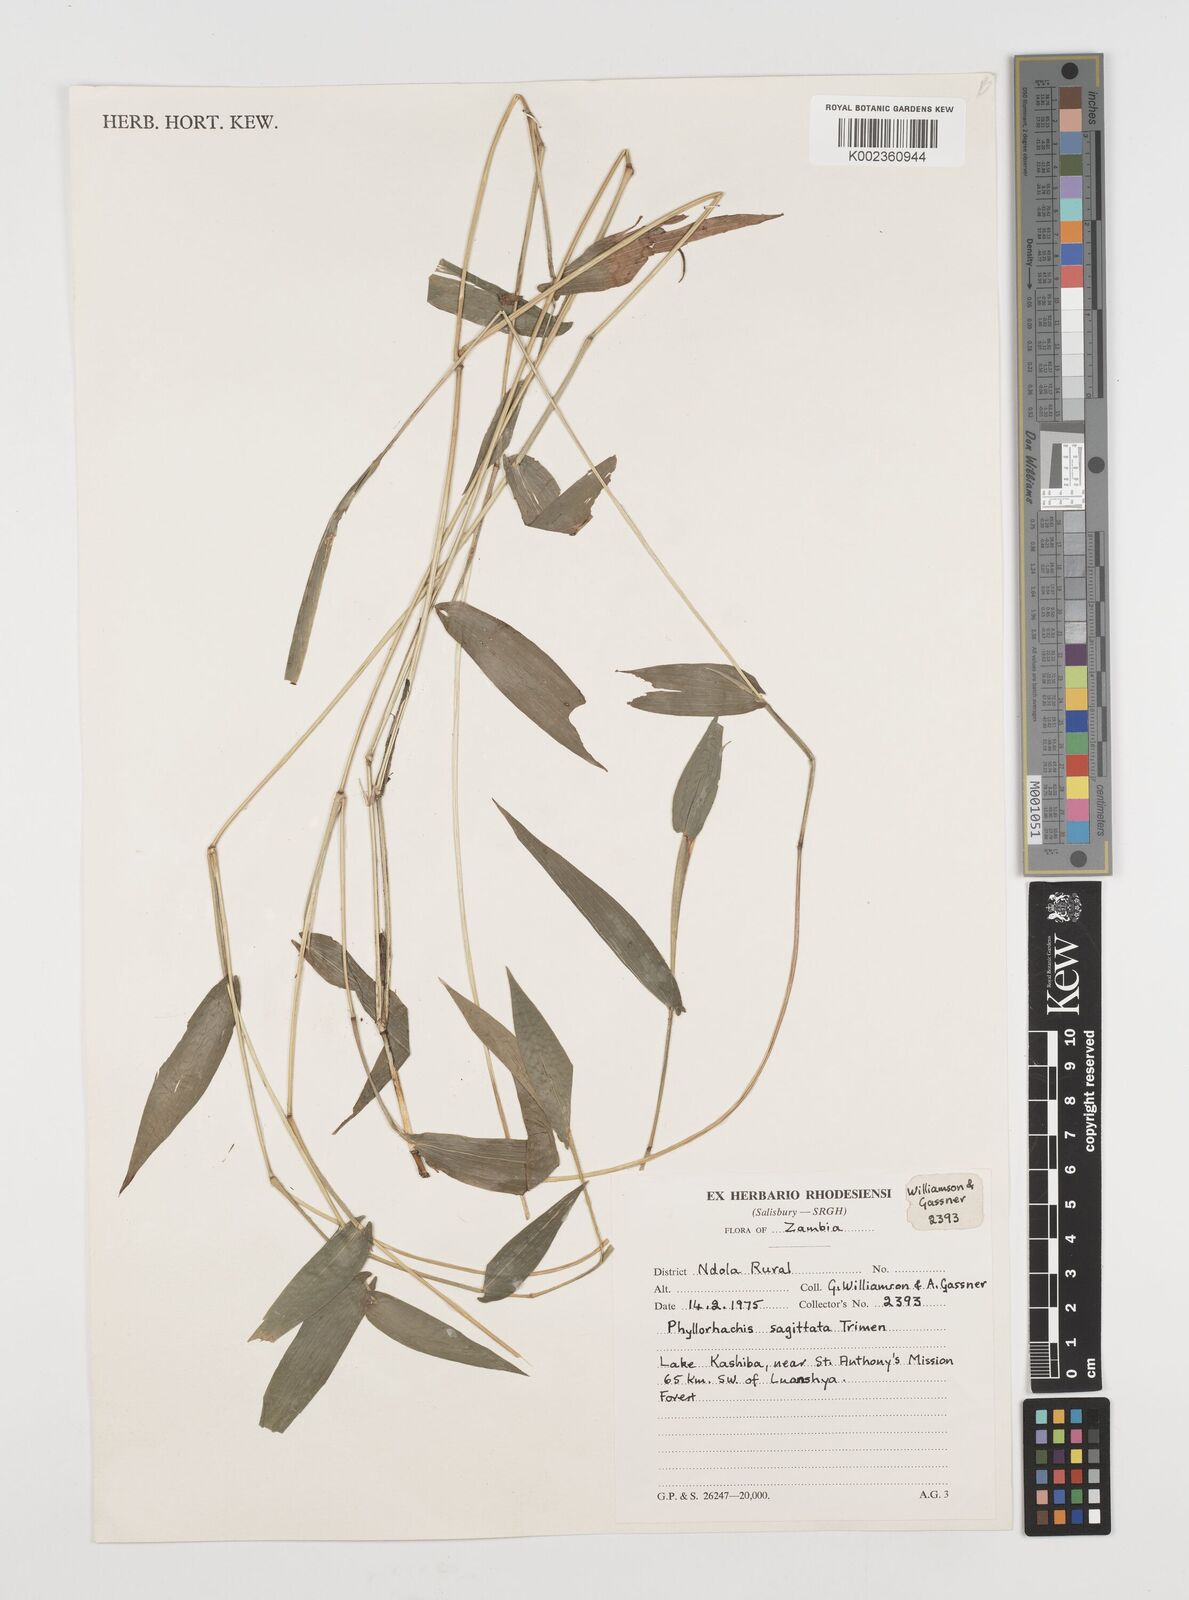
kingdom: Plantae
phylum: Tracheophyta
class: Liliopsida
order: Poales
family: Poaceae
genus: Phyllorachis
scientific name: Phyllorachis sagittata
